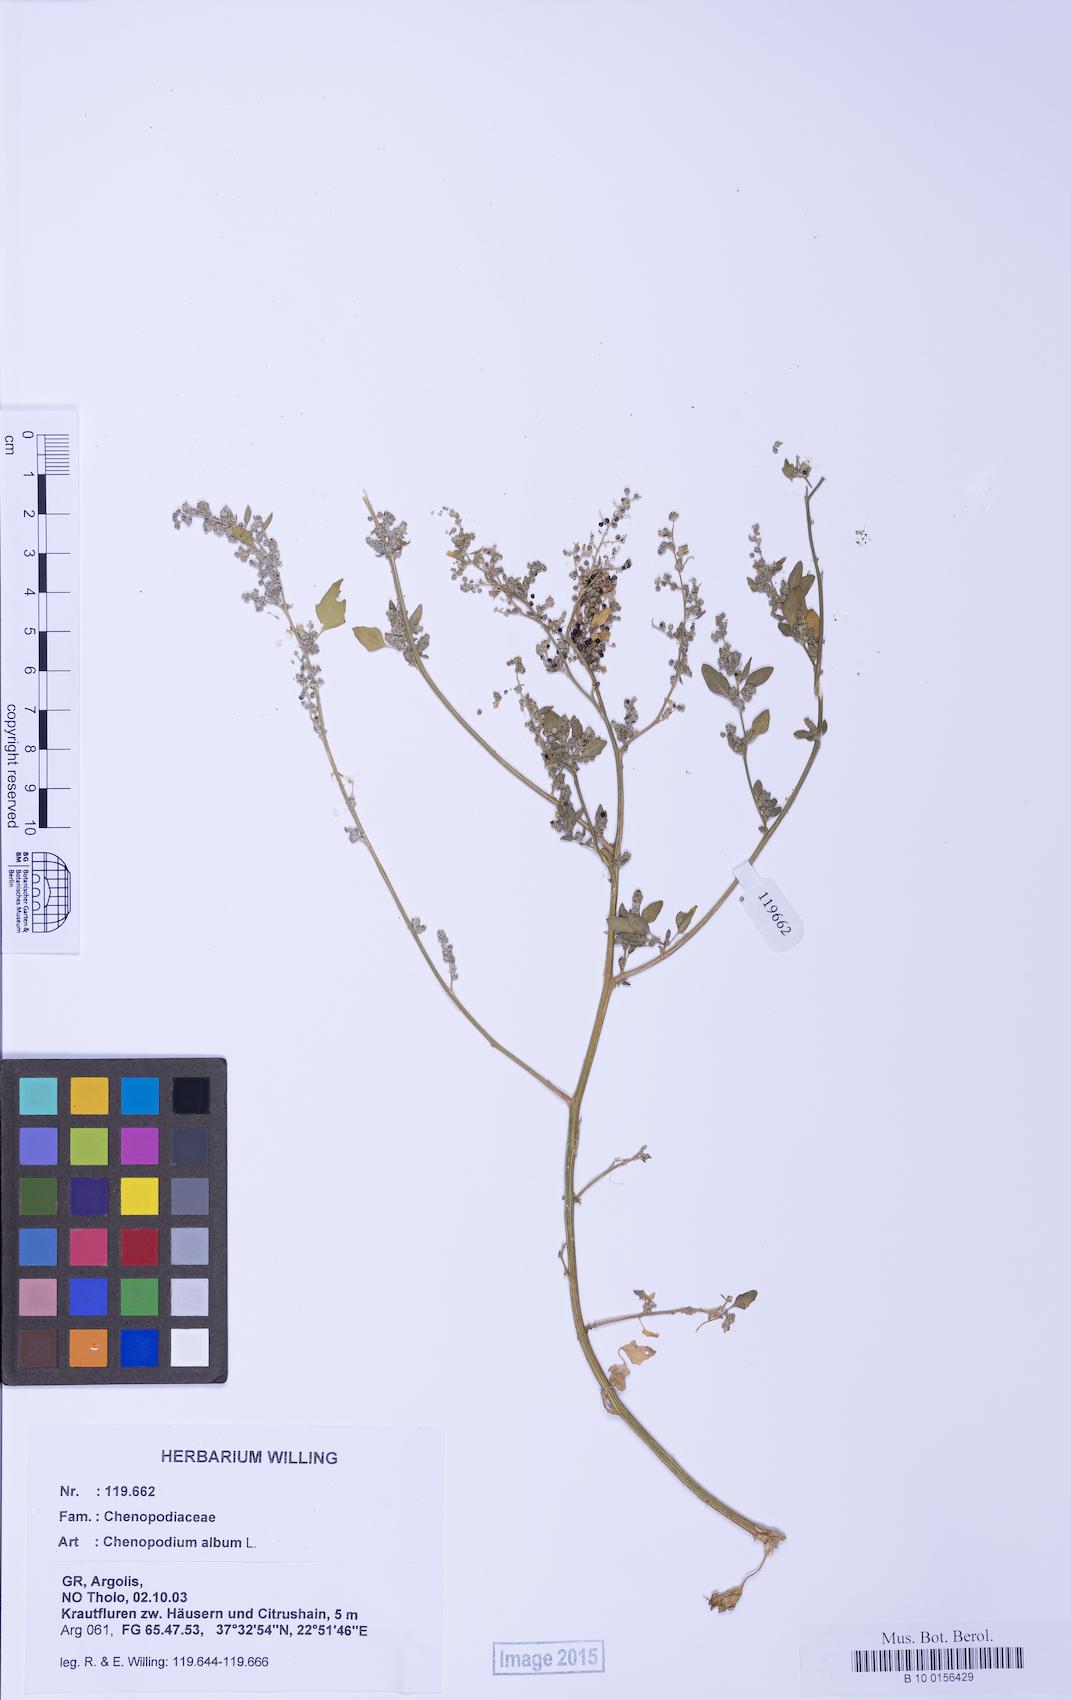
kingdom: Plantae
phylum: Tracheophyta
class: Magnoliopsida
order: Caryophyllales
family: Amaranthaceae
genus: Chenopodium
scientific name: Chenopodium album
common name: Fat-hen
